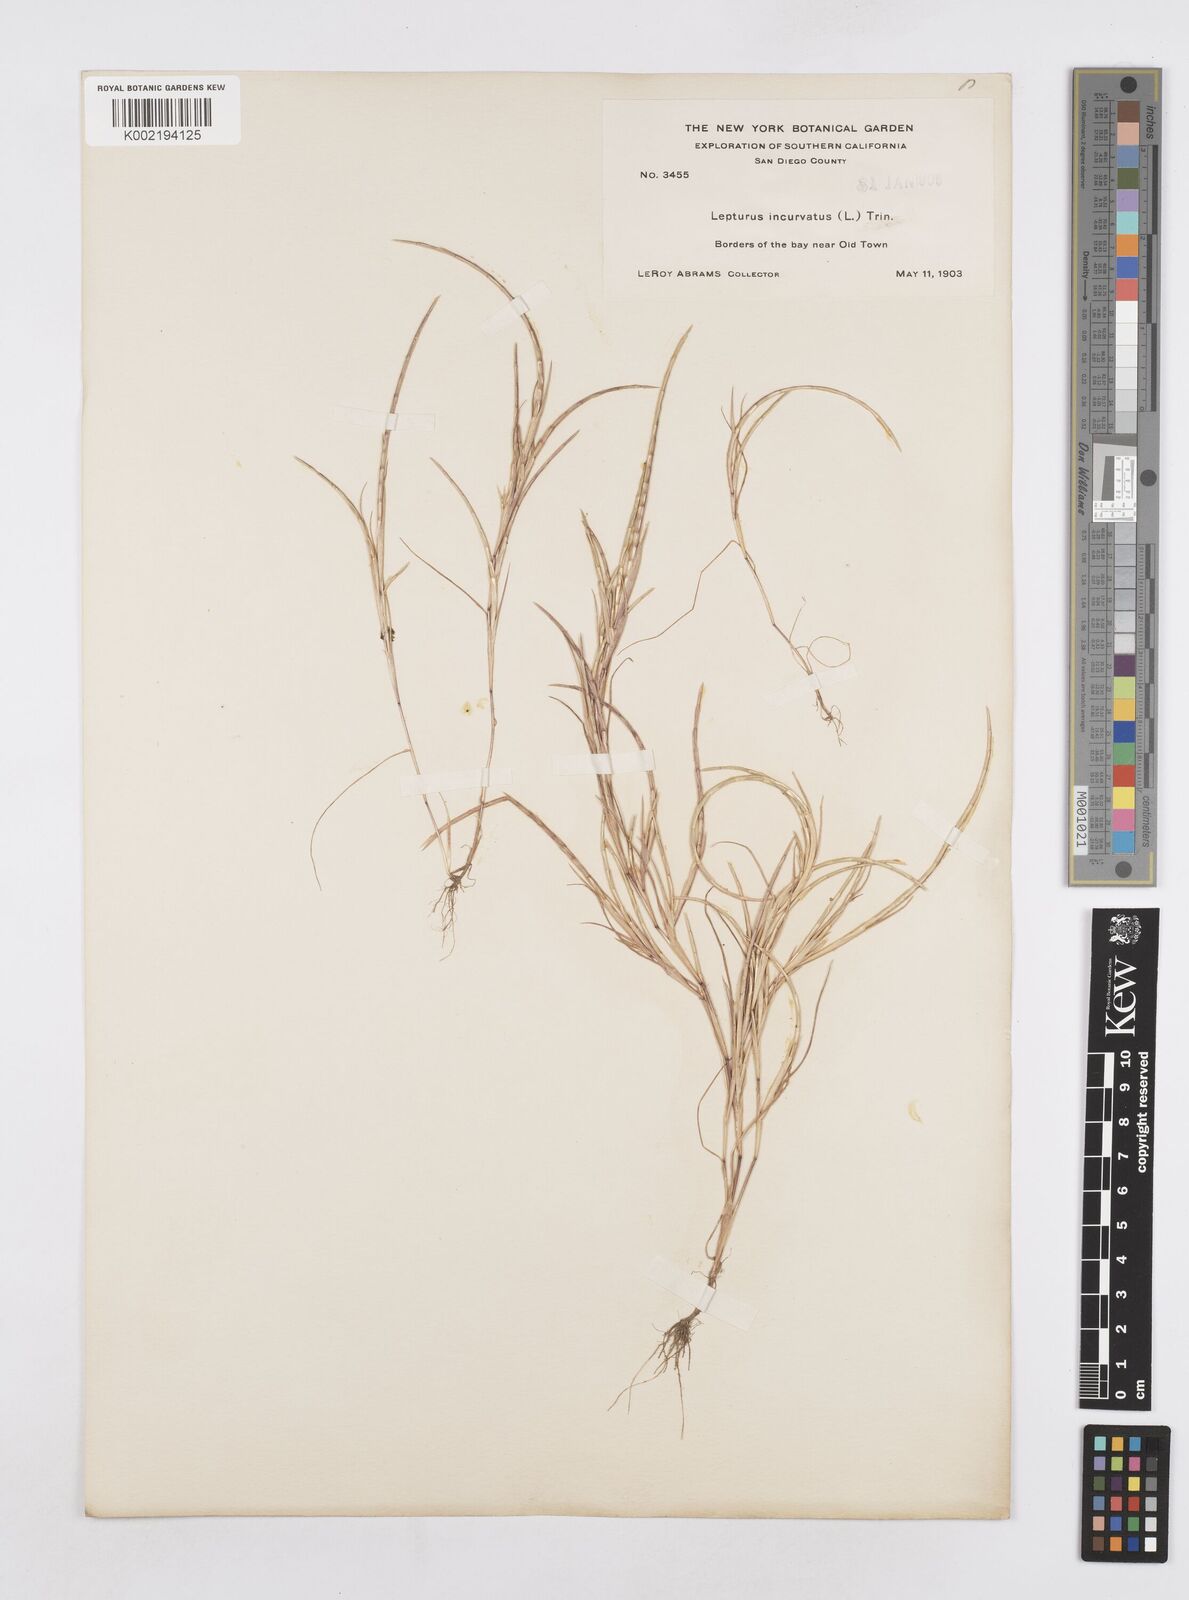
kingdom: Plantae
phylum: Tracheophyta
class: Liliopsida
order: Poales
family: Poaceae
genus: Parapholis
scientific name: Parapholis incurva
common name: Curved sicklegrass
